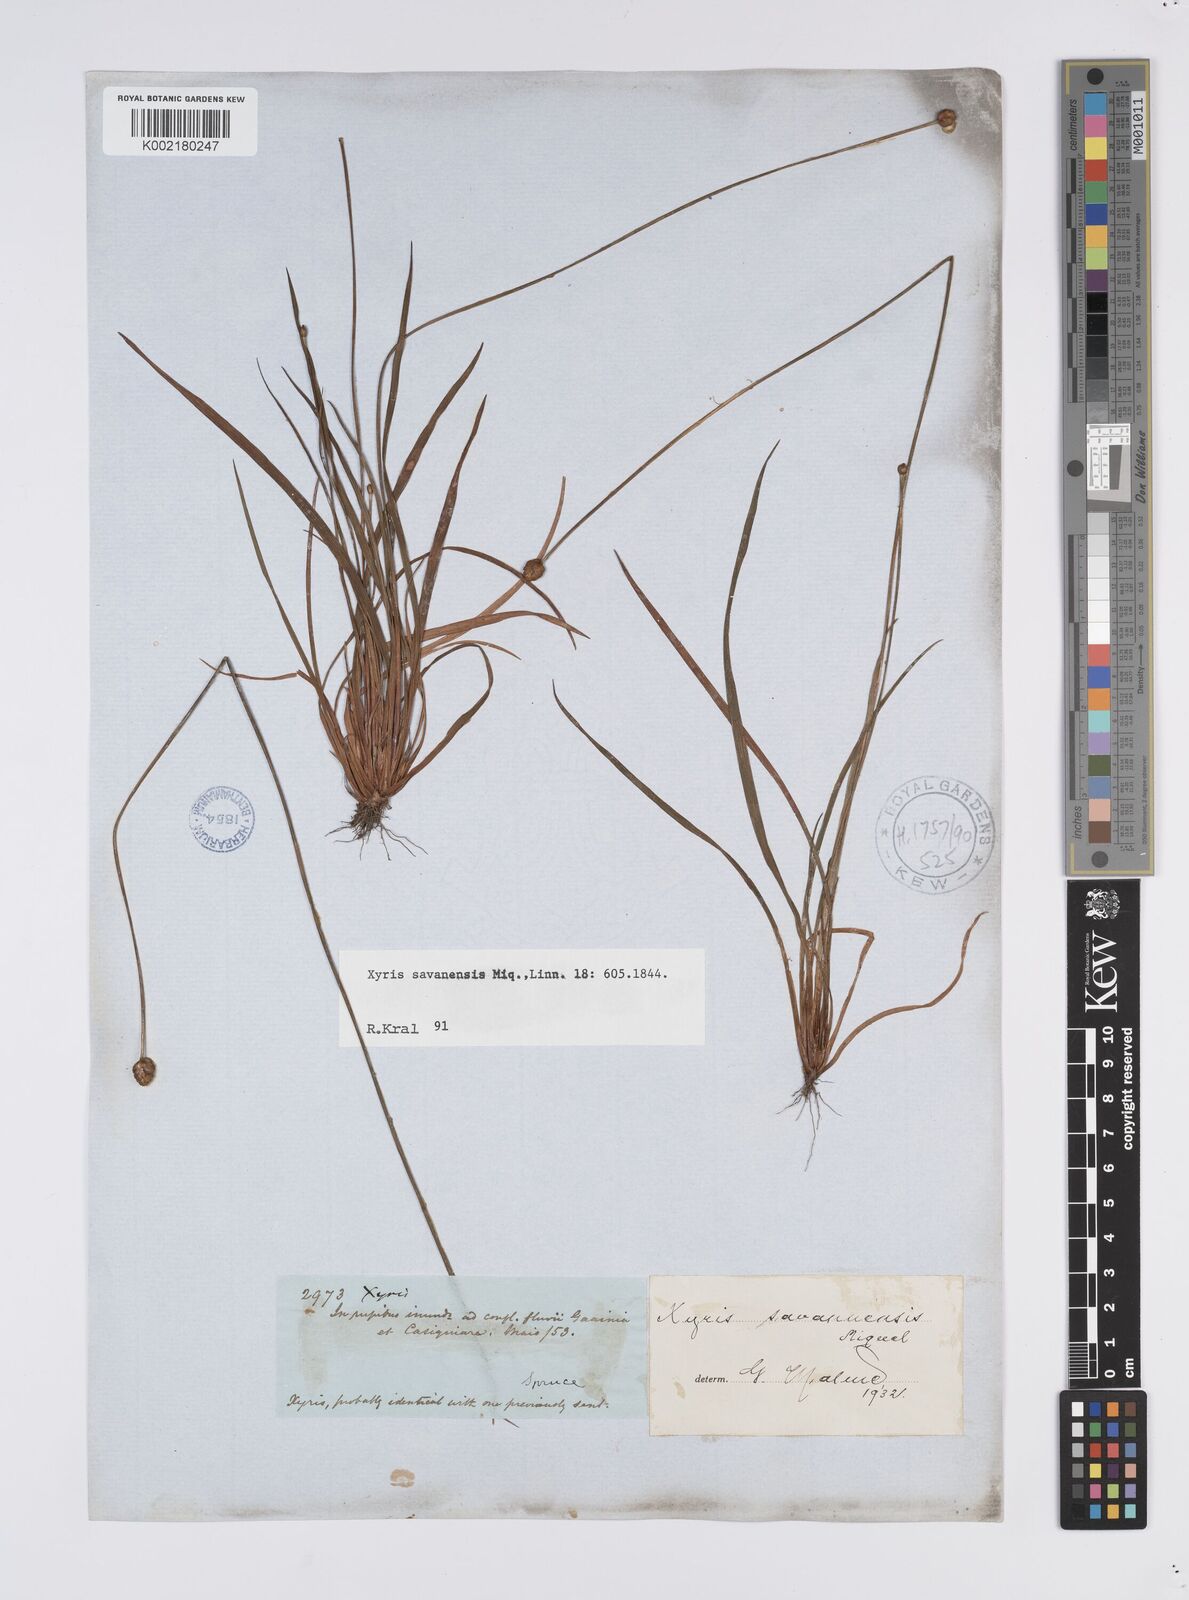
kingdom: Plantae
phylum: Tracheophyta
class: Liliopsida
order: Poales
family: Xyridaceae
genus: Xyris
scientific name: Xyris savanensis
